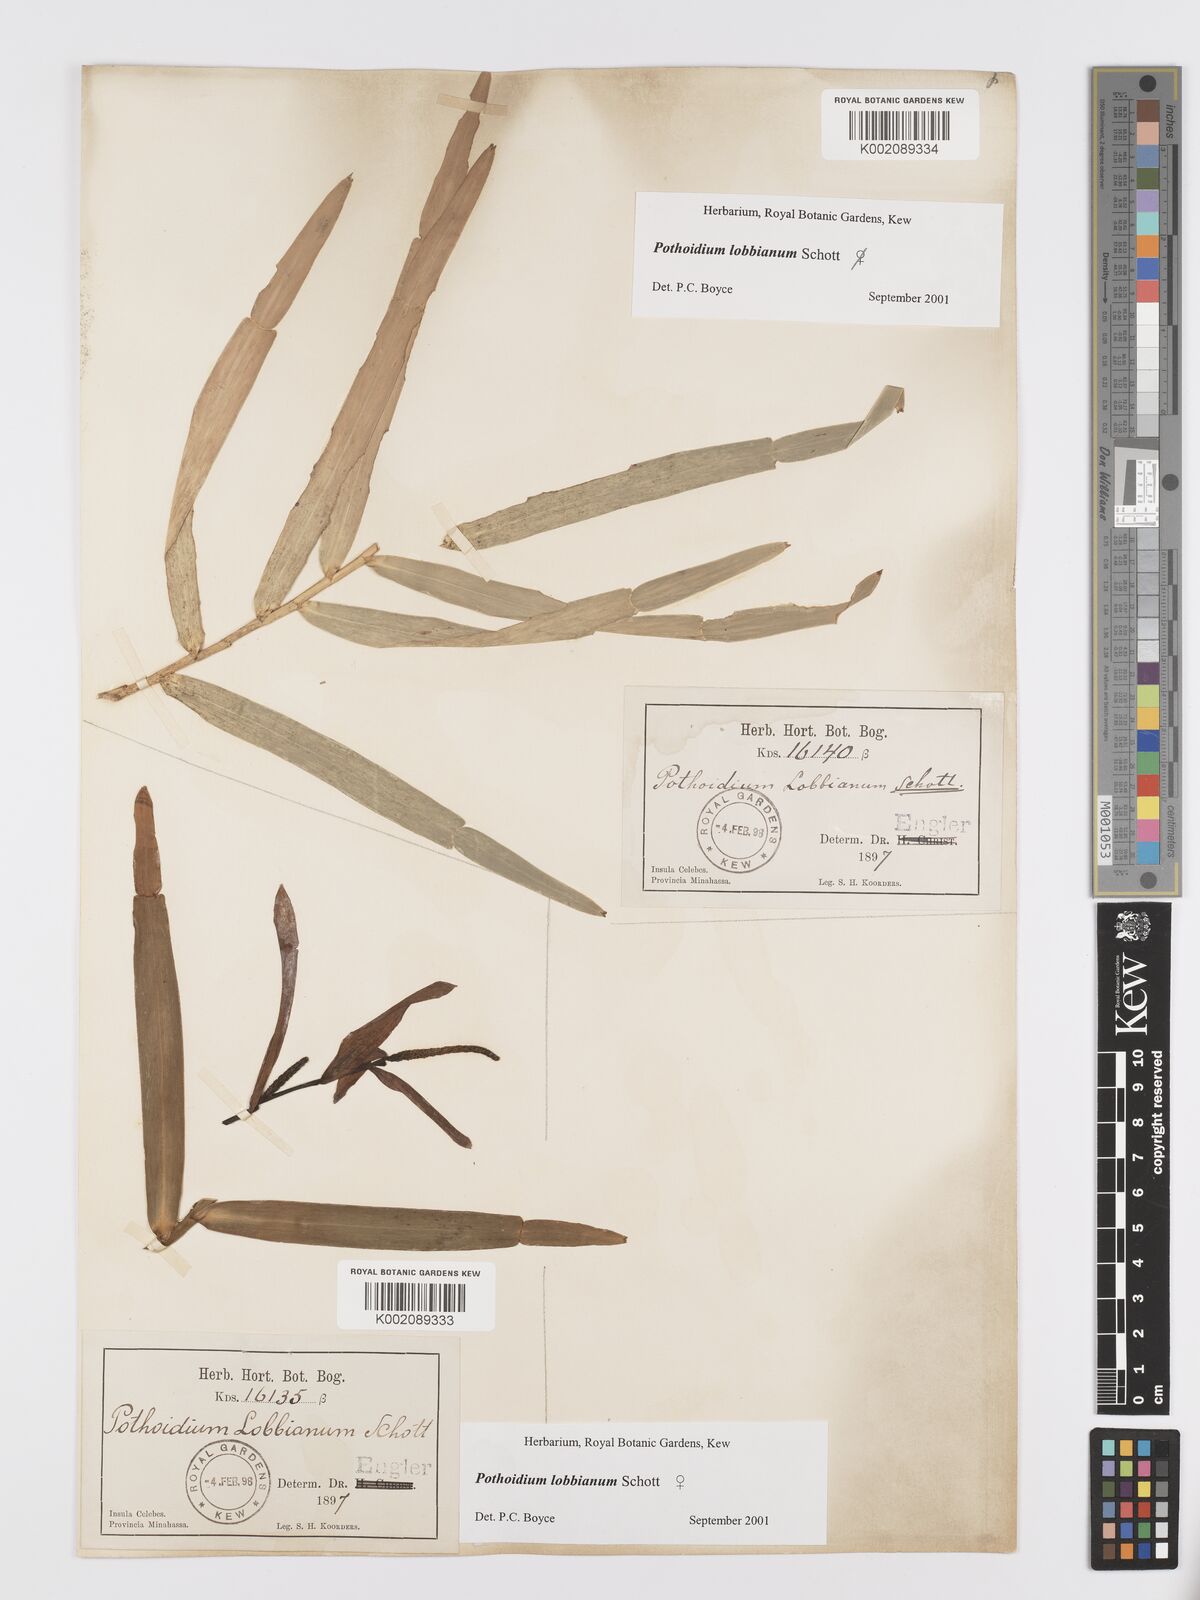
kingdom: Plantae
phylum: Tracheophyta
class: Liliopsida
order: Alismatales
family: Araceae
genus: Pothoidium
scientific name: Pothoidium lobbianum
